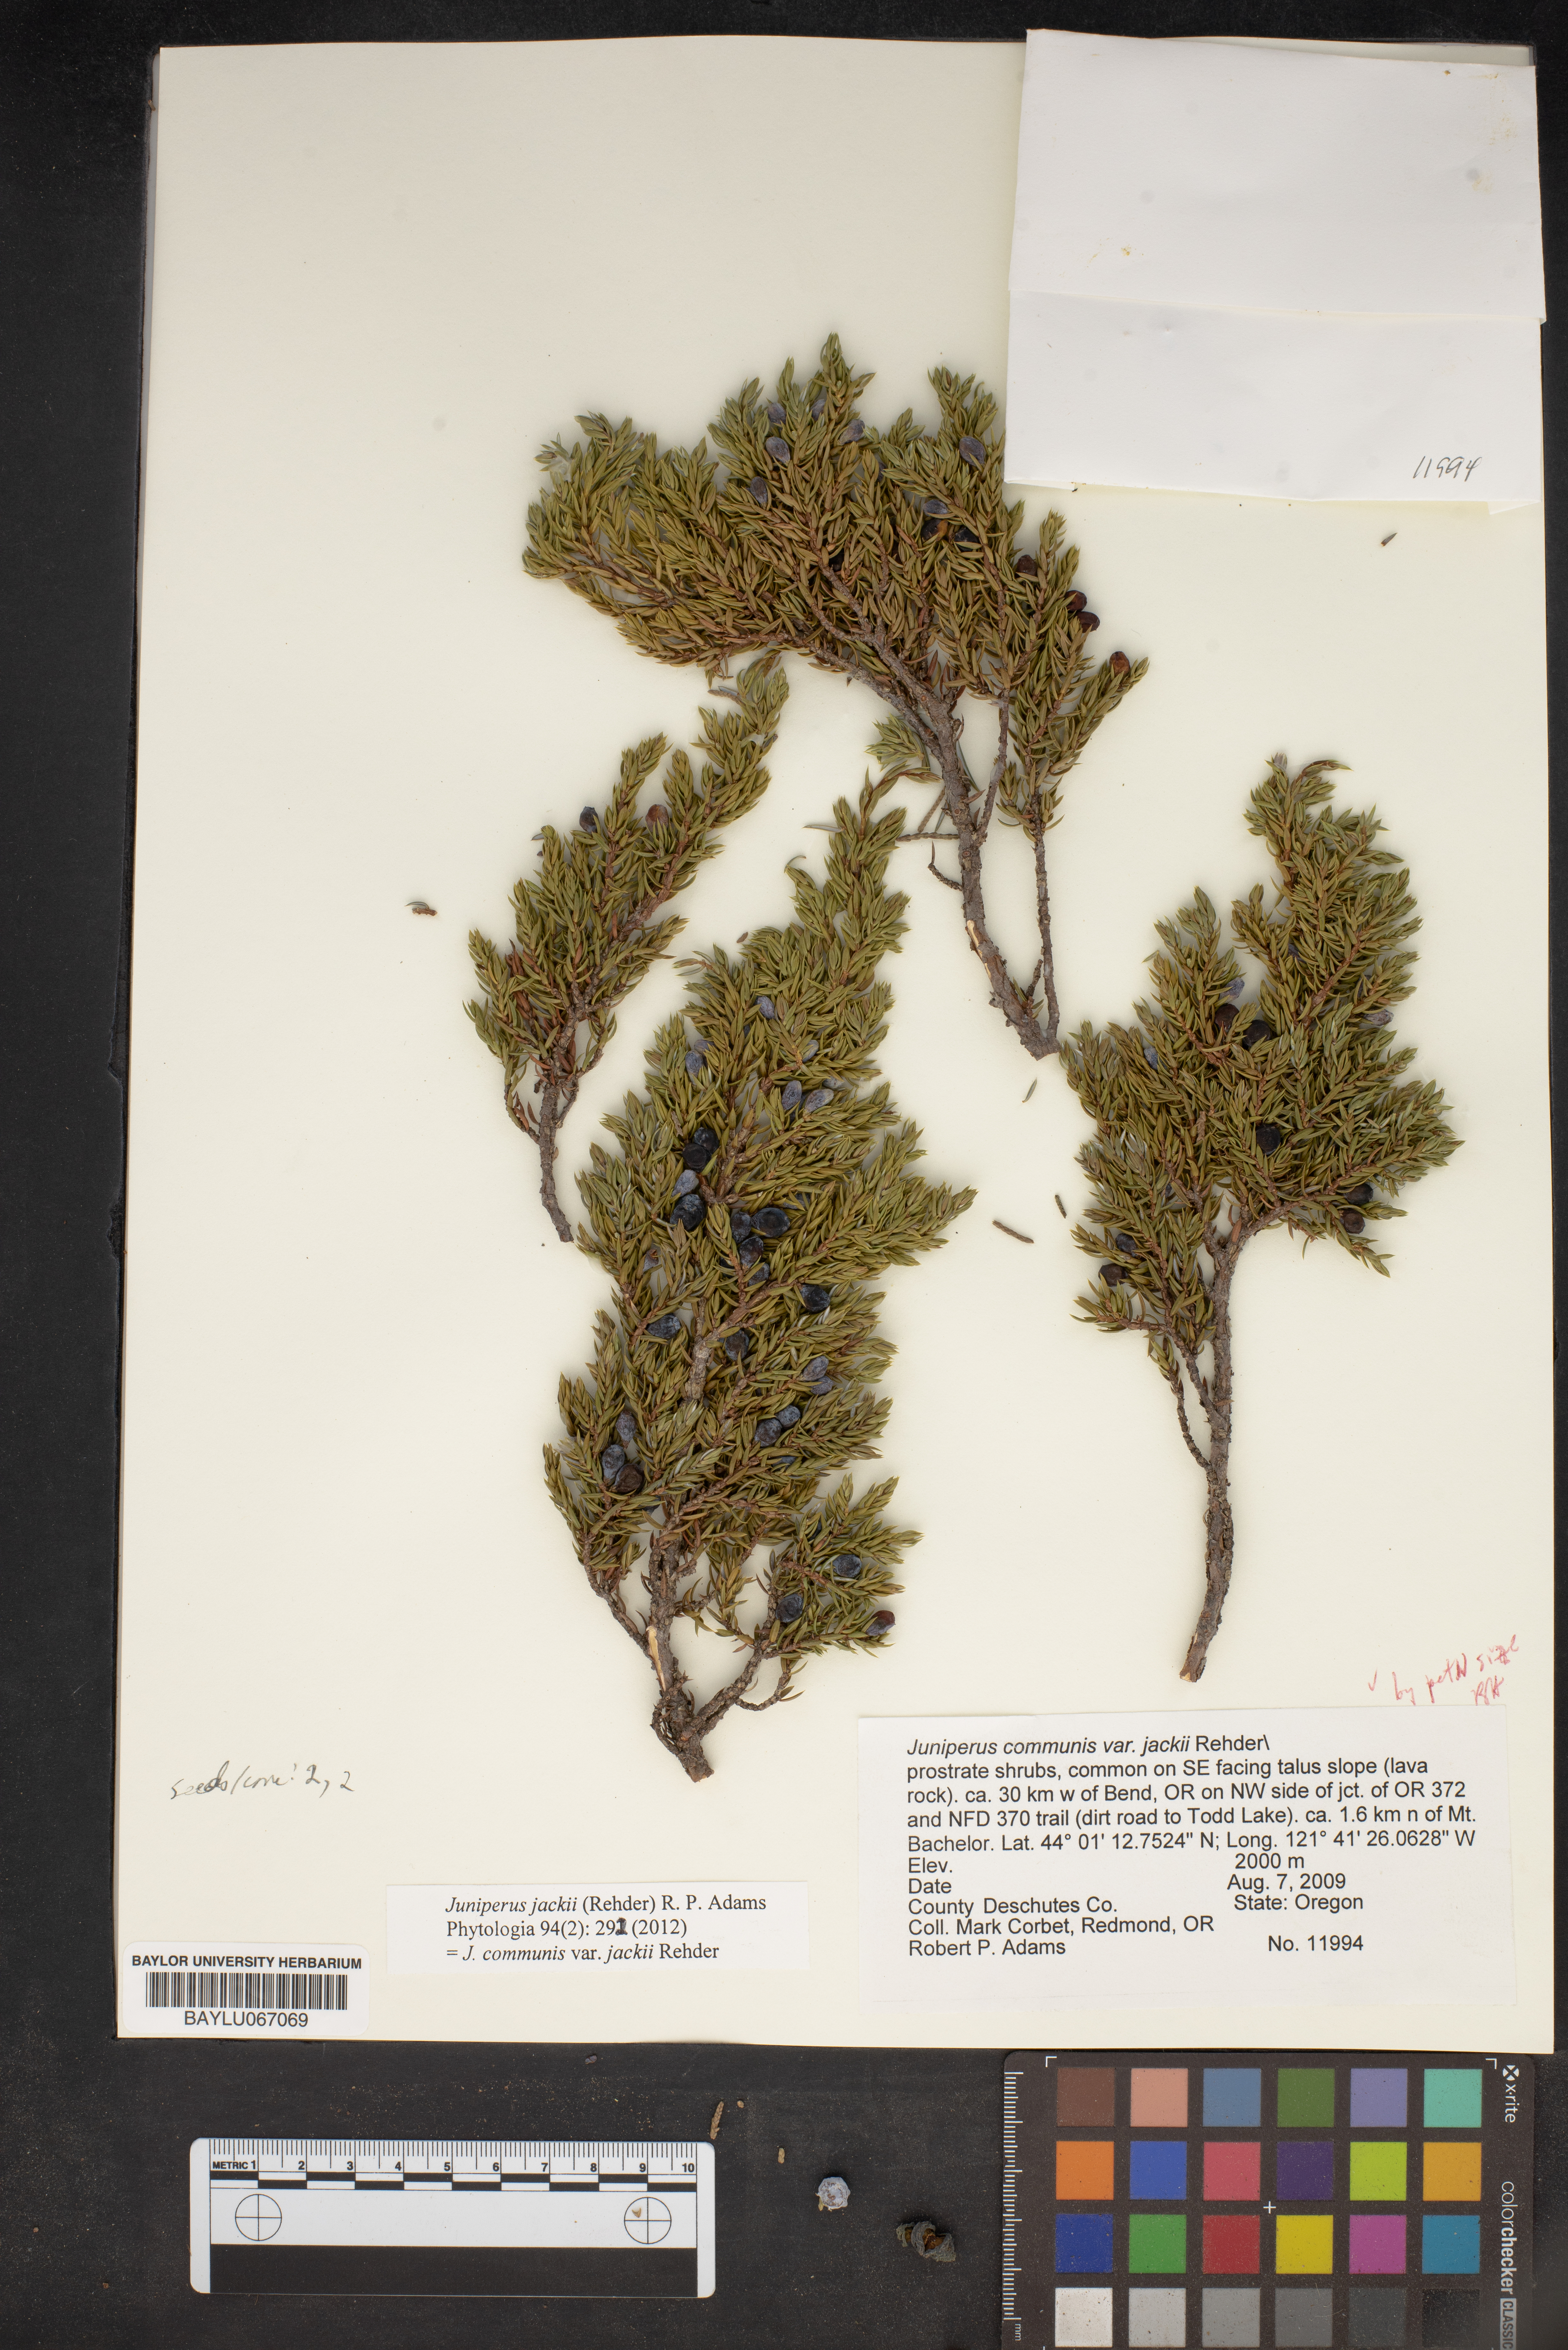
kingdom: Plantae
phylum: Tracheophyta
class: Pinopsida
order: Pinales
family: Cupressaceae
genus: Juniperus
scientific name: Juniperus communis
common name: Common juniper
